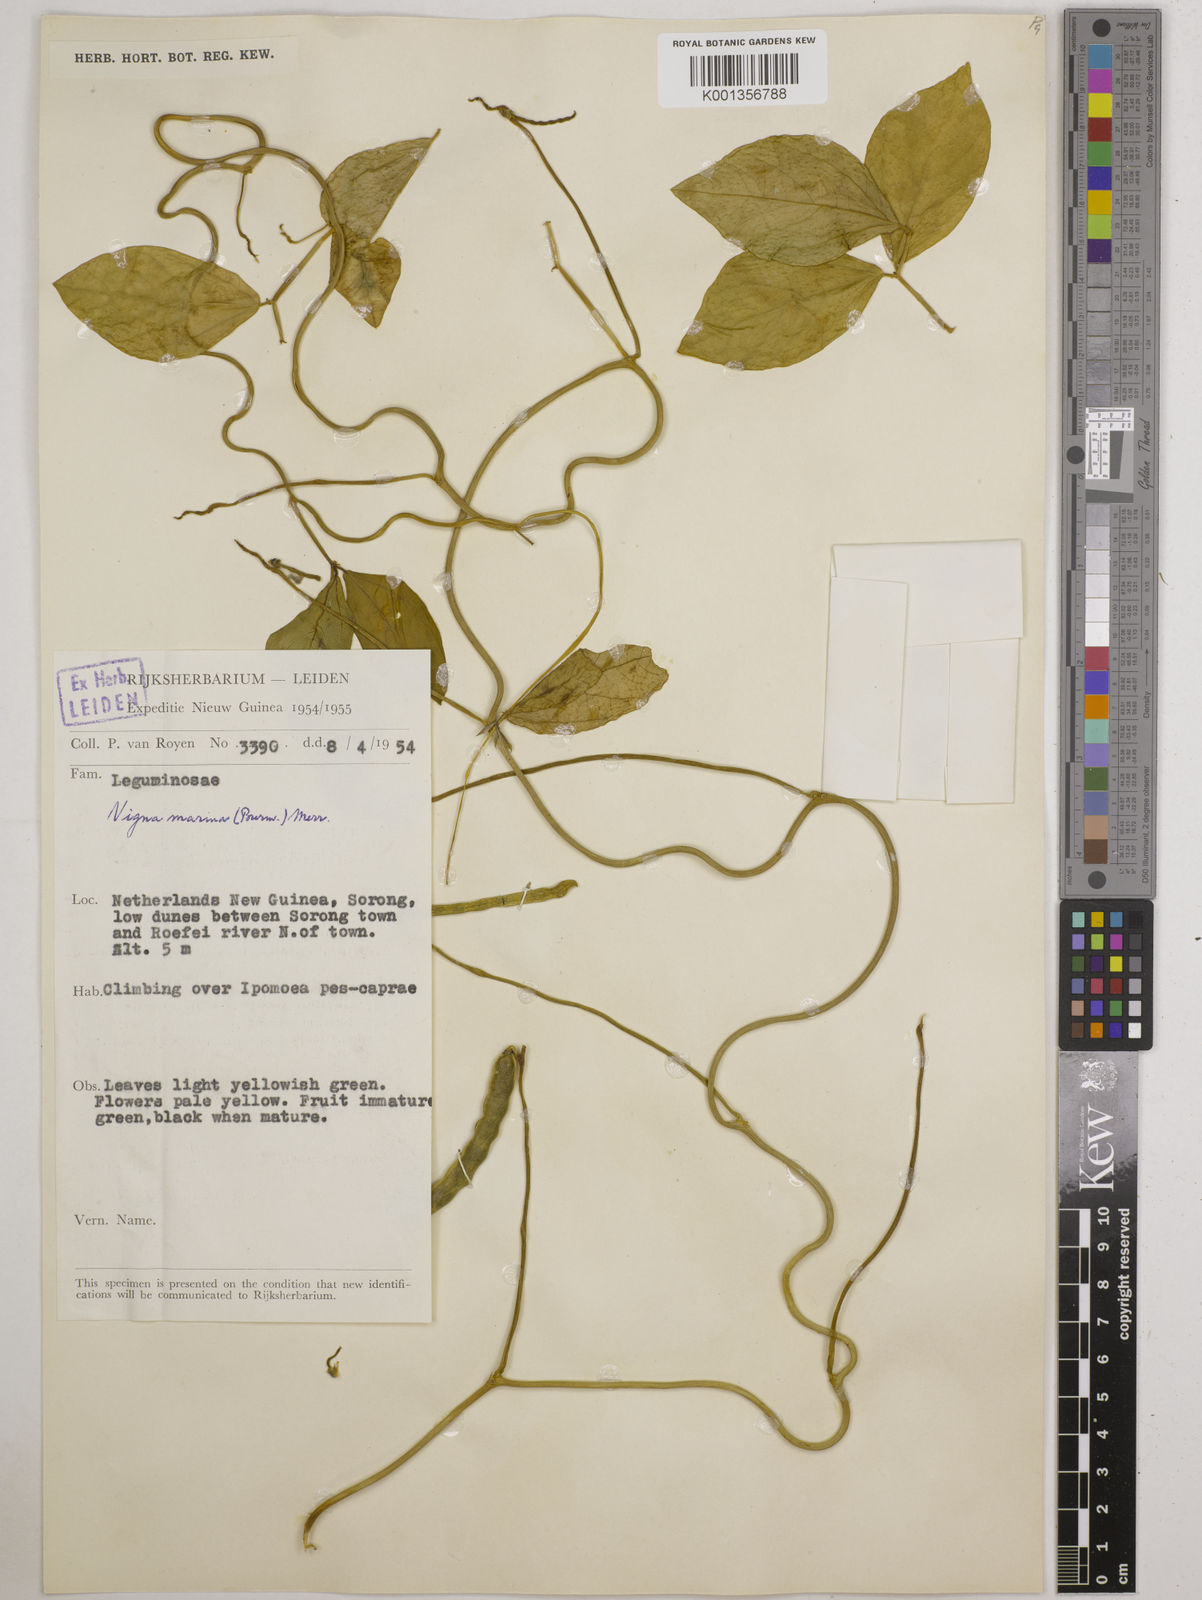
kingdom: Plantae
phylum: Tracheophyta
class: Magnoliopsida
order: Fabales
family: Fabaceae
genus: Vigna
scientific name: Vigna marina
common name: Dune-bean
